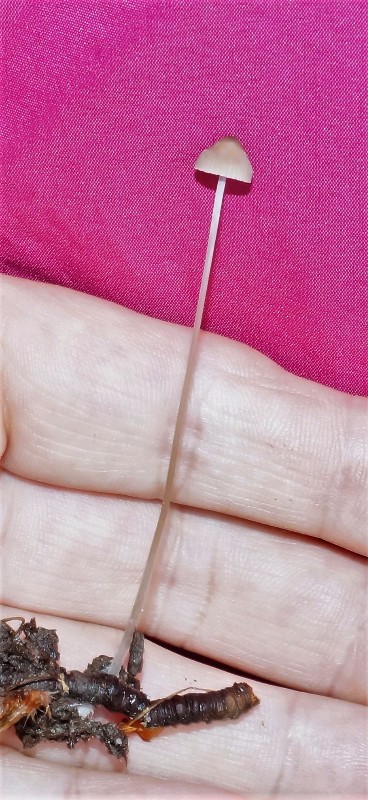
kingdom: Fungi
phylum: Basidiomycota
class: Agaricomycetes
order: Agaricales
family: Mycenaceae
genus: Mycena
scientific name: Mycena vitilis
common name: blankstokket huesvamp
